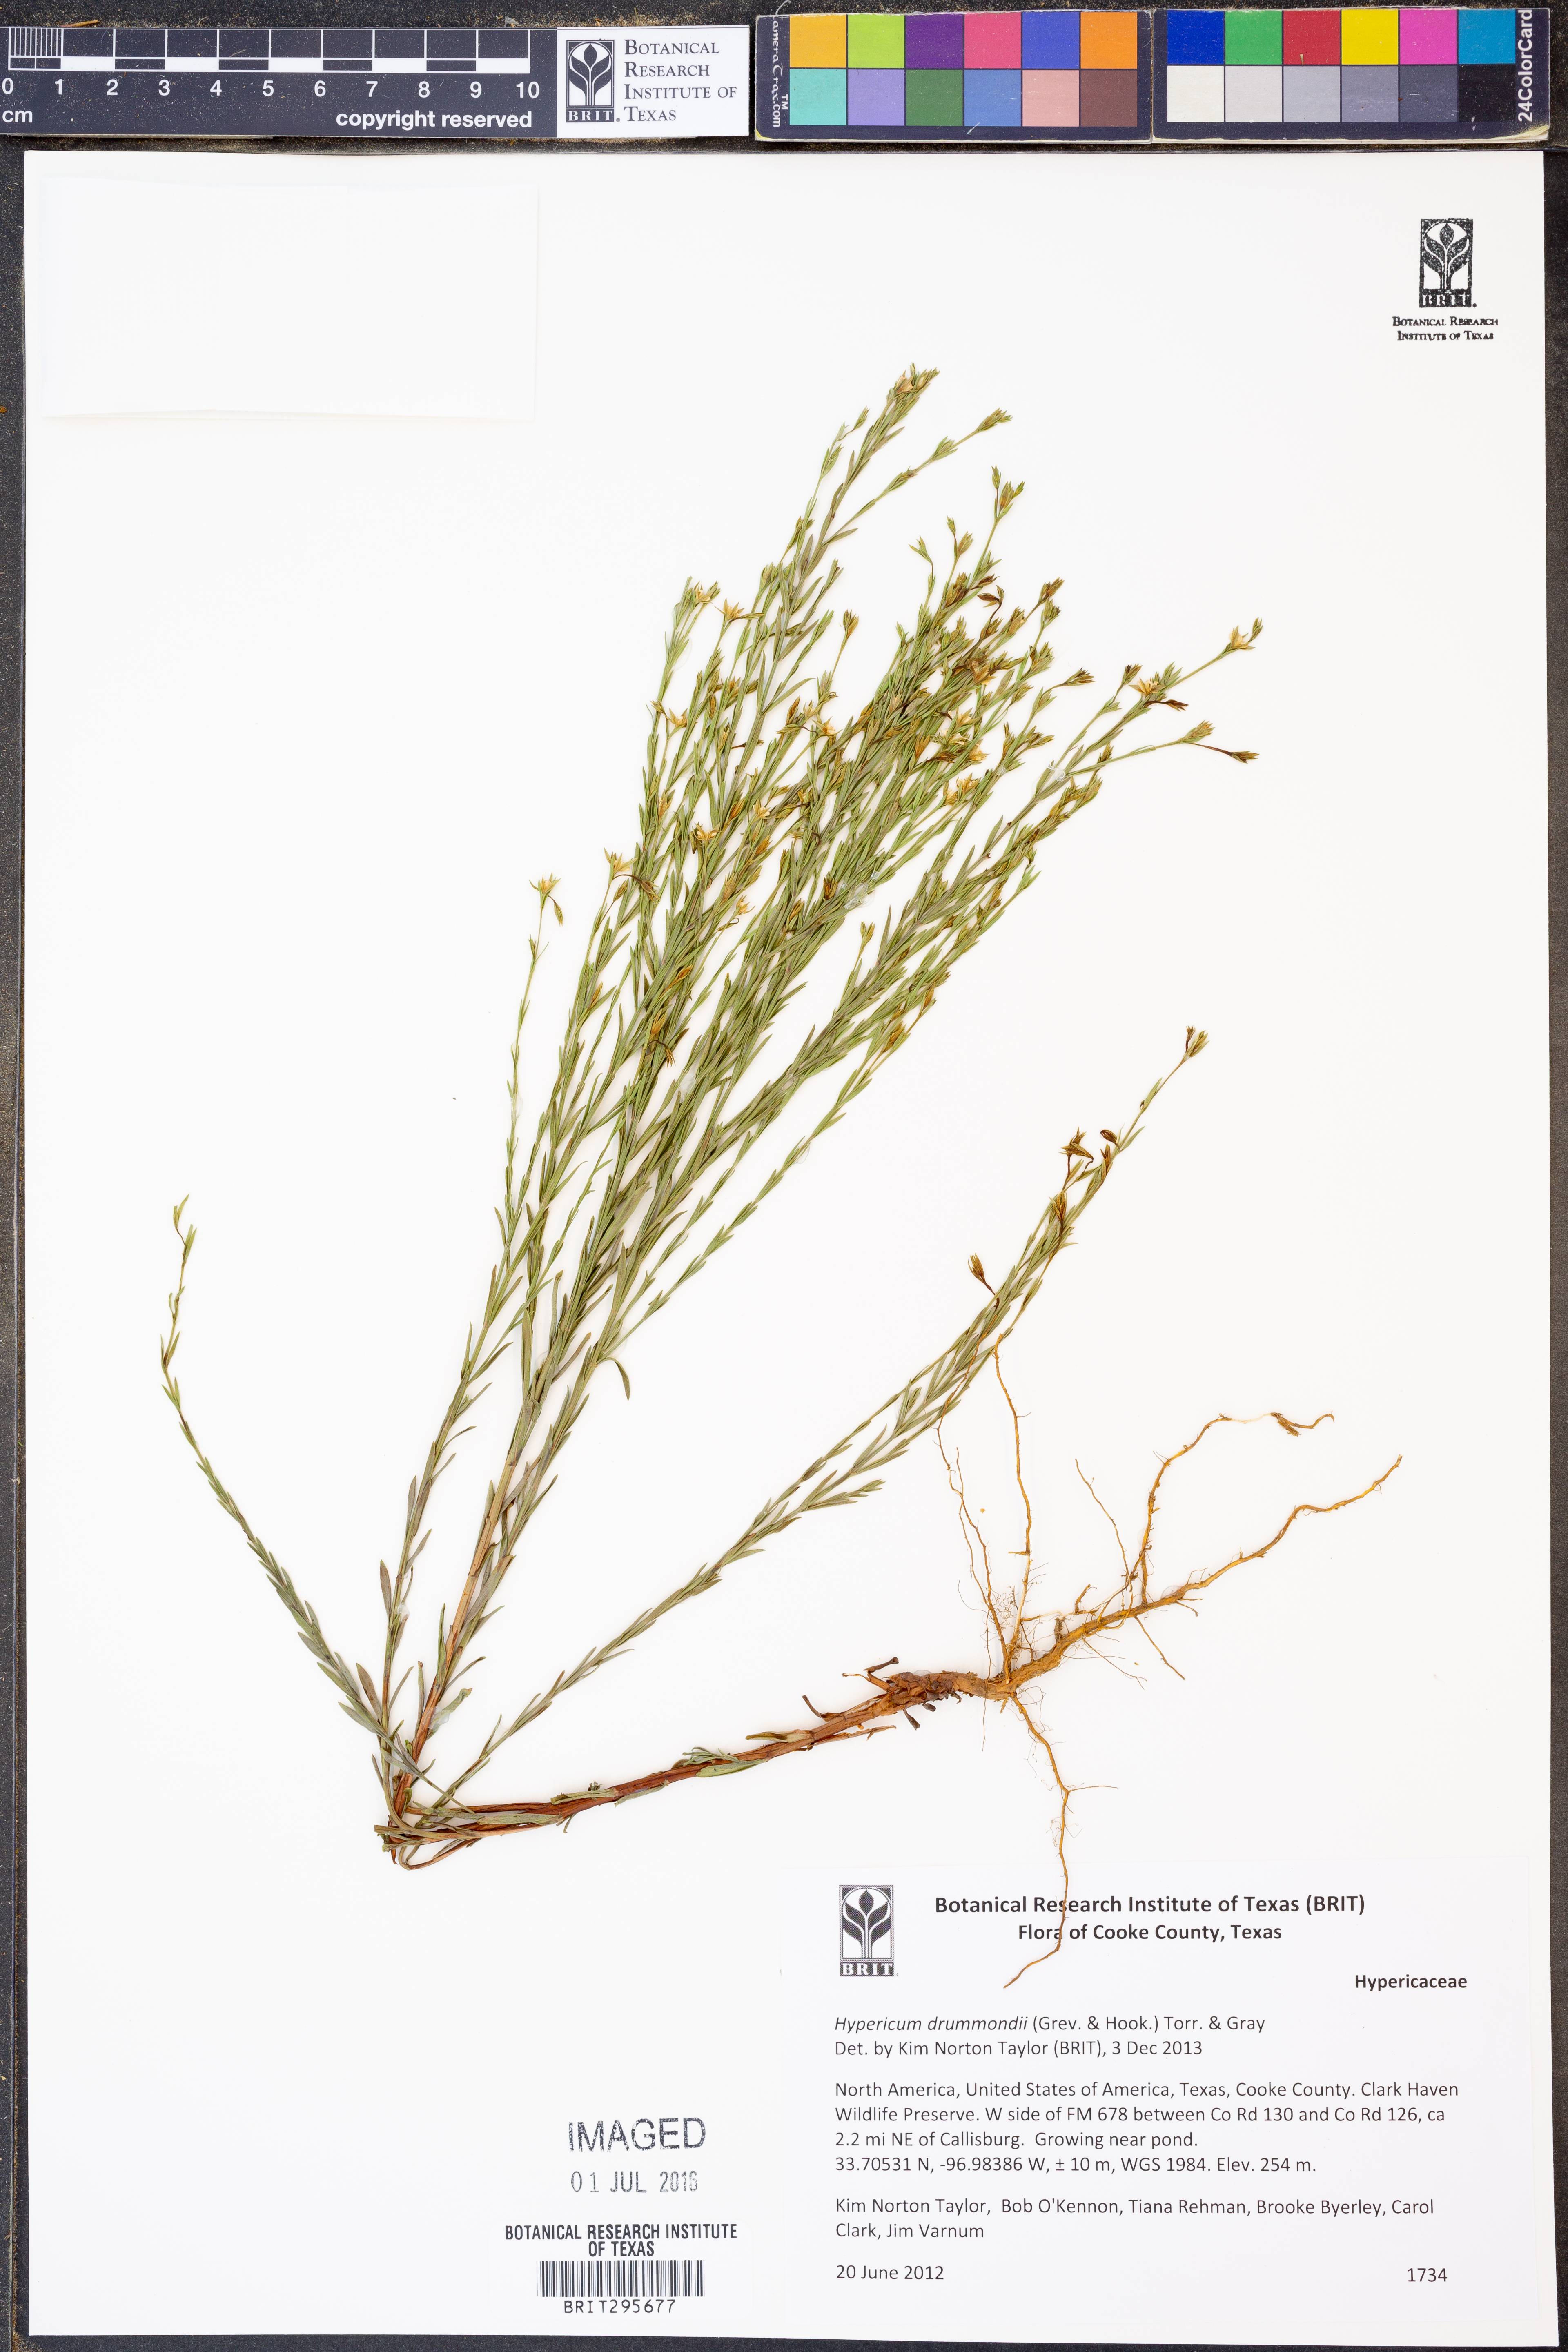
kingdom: Plantae
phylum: Tracheophyta
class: Magnoliopsida
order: Malpighiales
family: Hypericaceae
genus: Hypericum
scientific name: Hypericum drummondii
